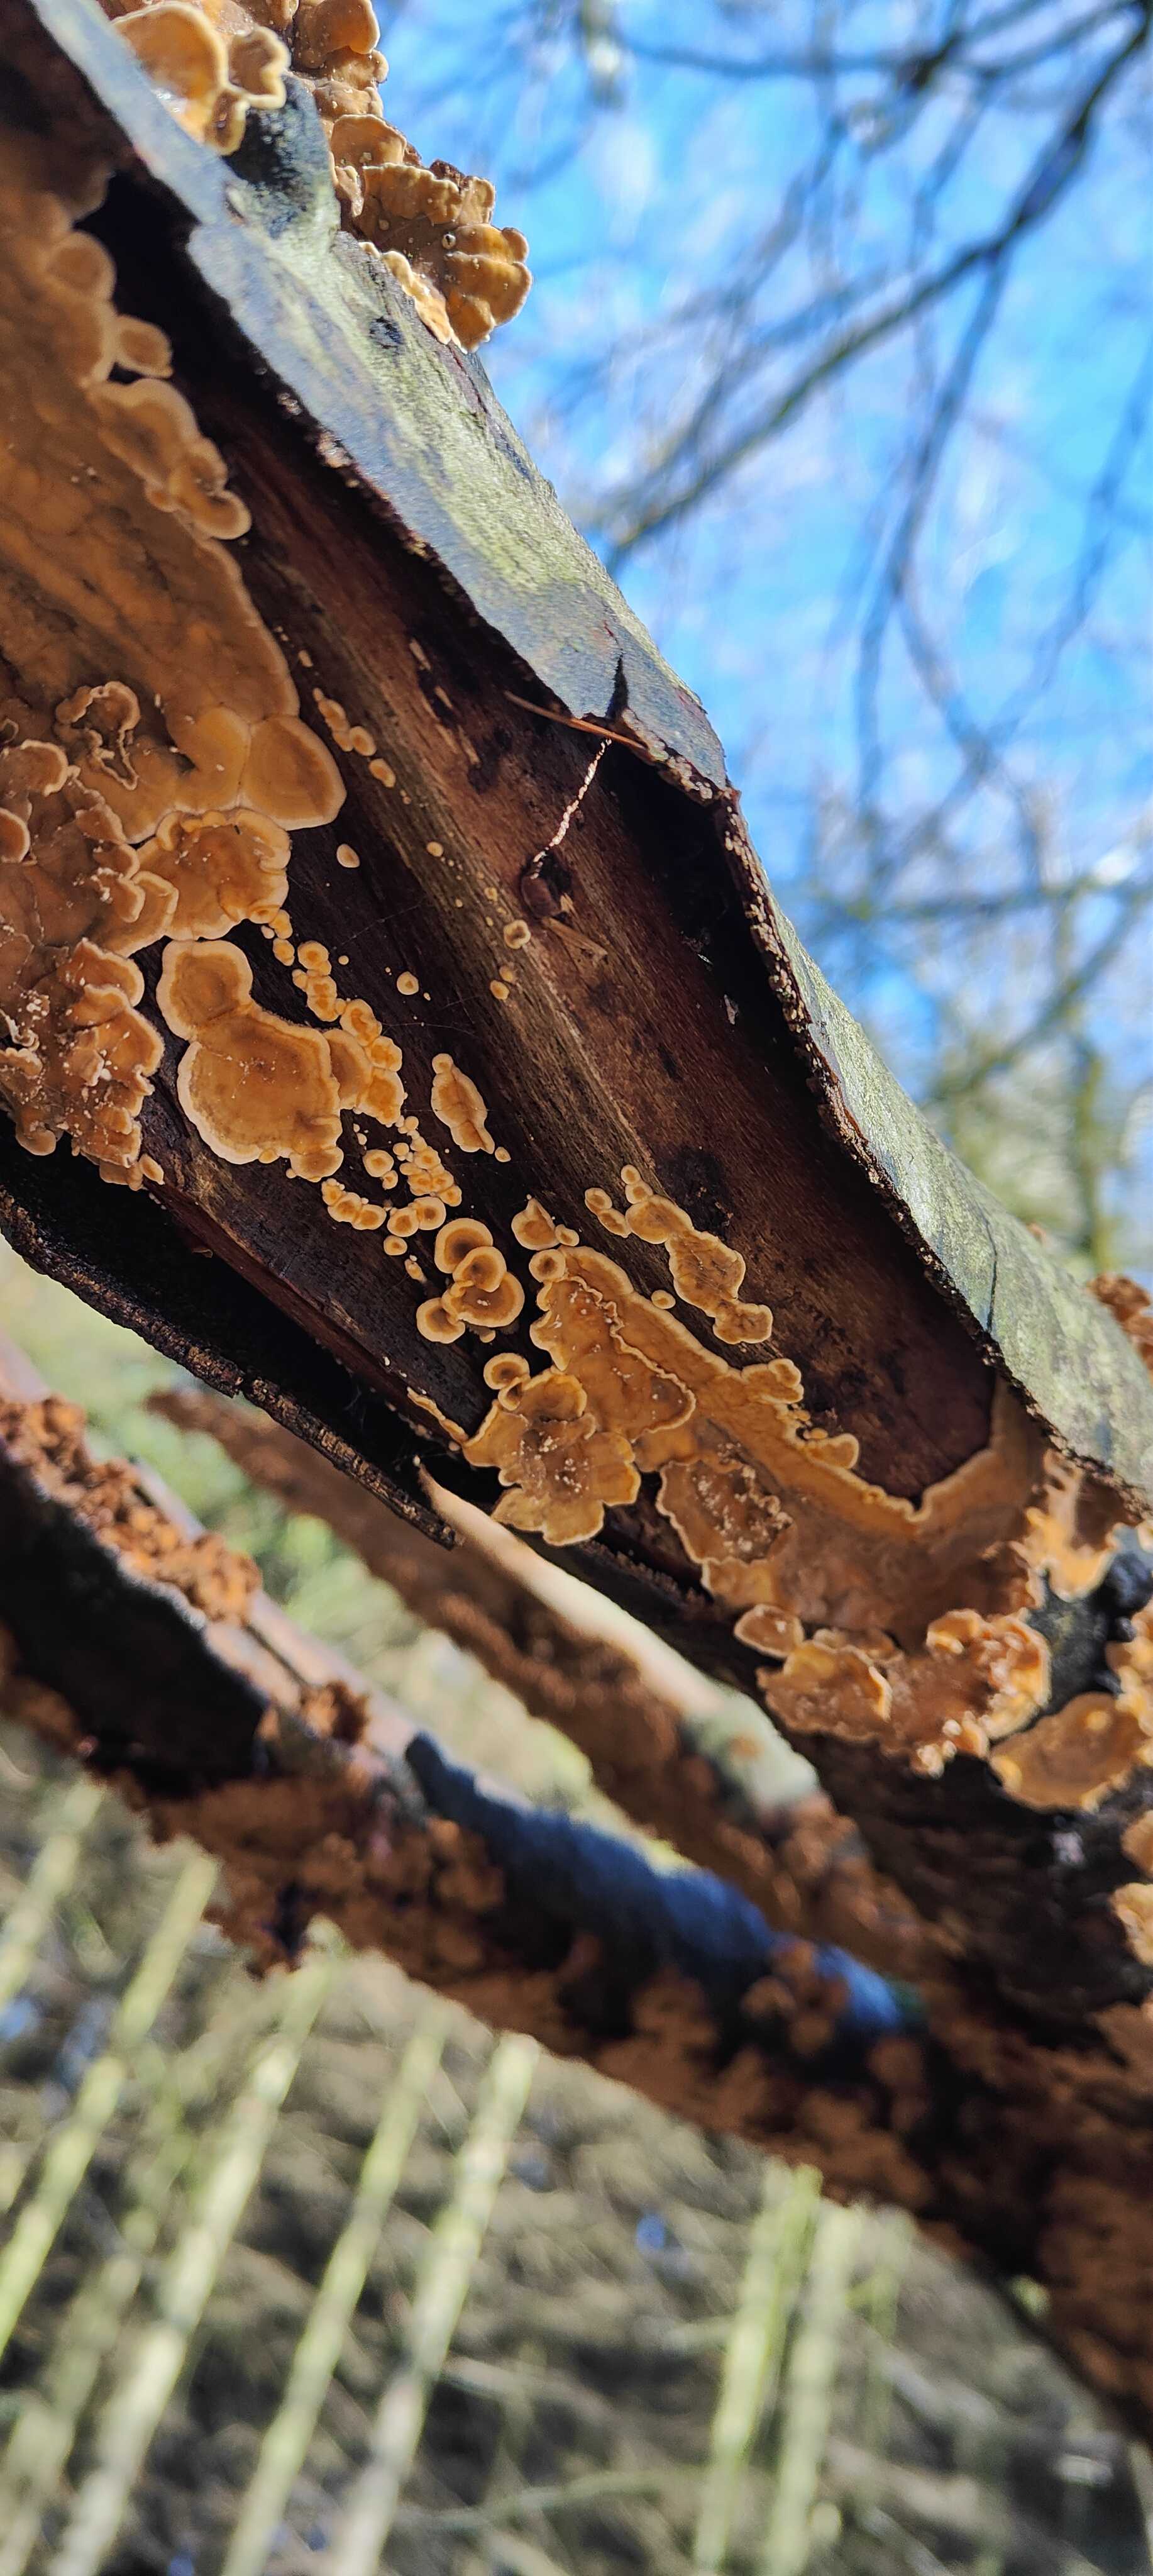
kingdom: Fungi
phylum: Basidiomycota
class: Agaricomycetes
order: Russulales
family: Stereaceae
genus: Stereum
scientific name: Stereum hirsutum
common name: håret lædersvamp
